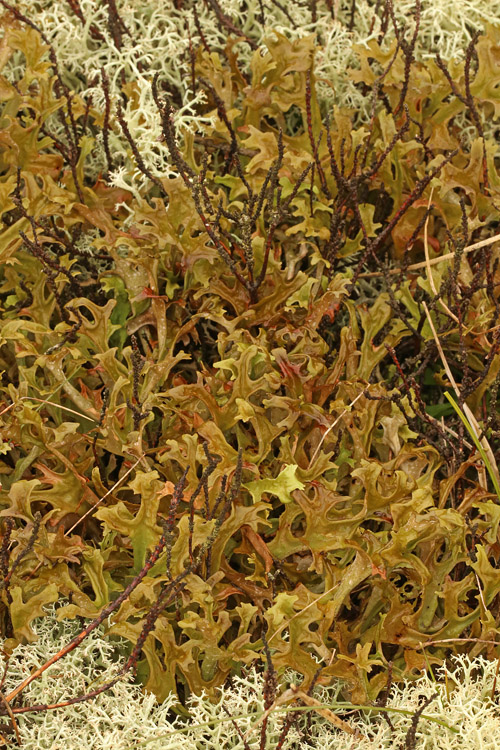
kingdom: Fungi
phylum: Ascomycota
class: Lecanoromycetes
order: Lecanorales
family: Parmeliaceae
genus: Cetraria
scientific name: Cetraria islandica
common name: islandsk kruslav
